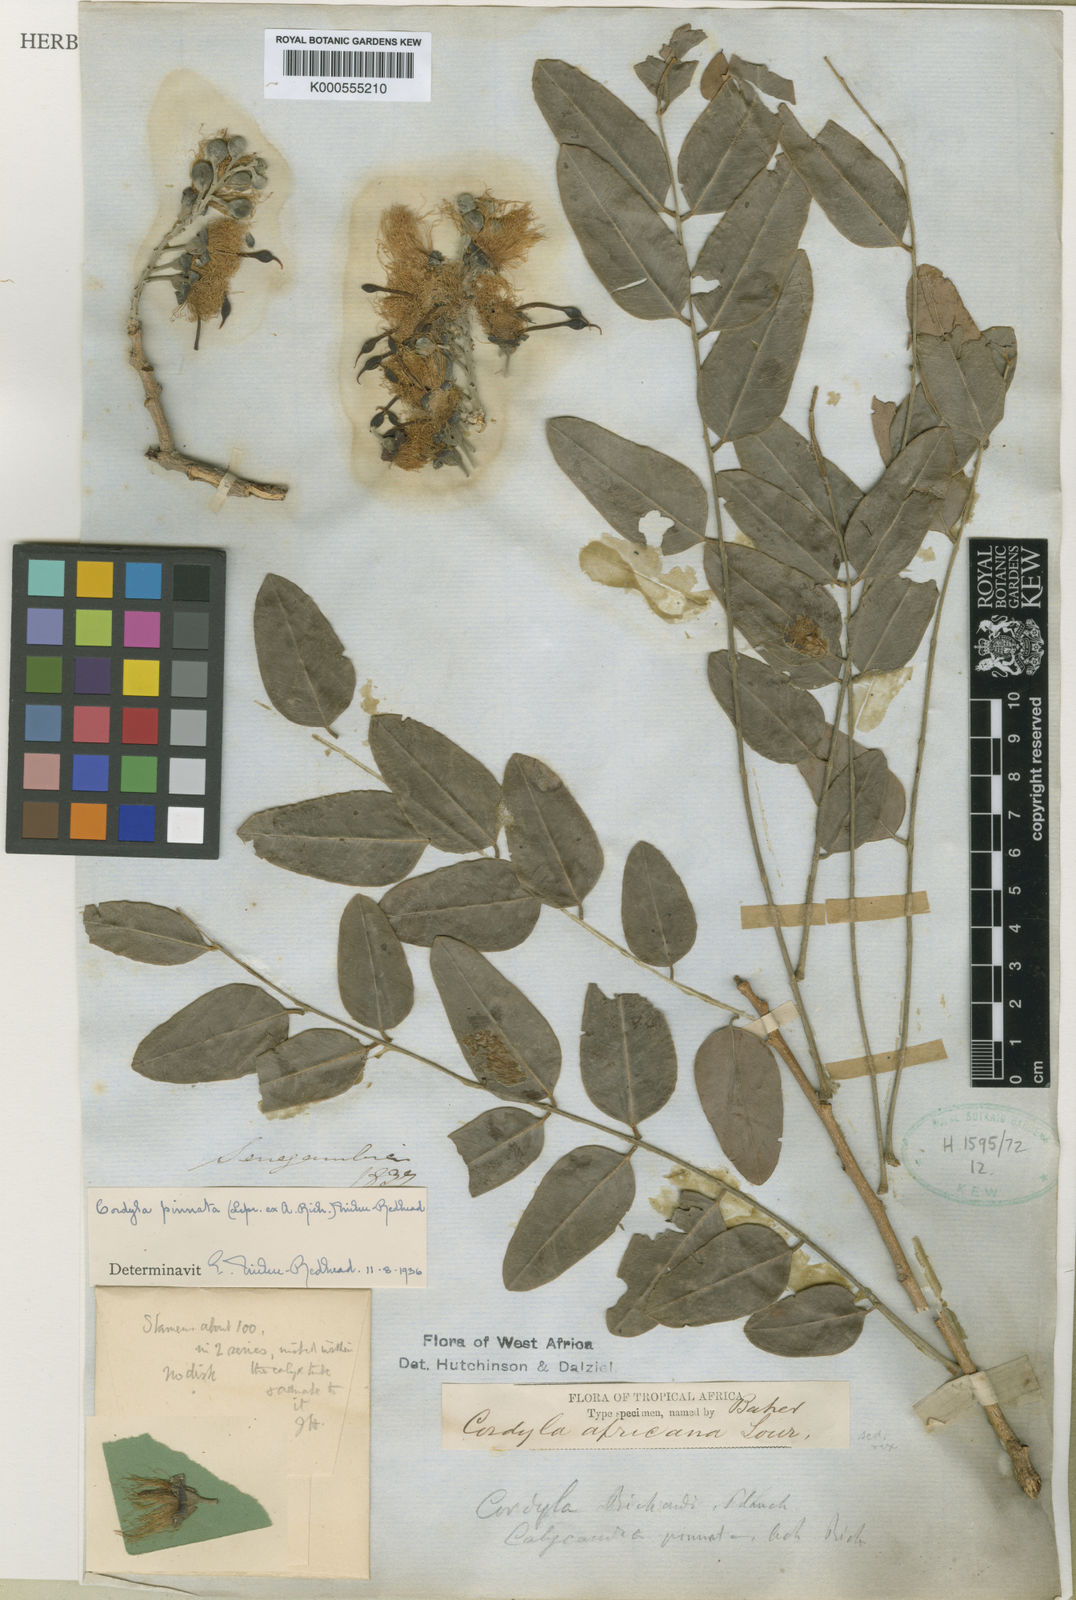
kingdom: Plantae
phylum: Tracheophyta
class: Magnoliopsida
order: Fabales
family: Fabaceae
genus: Cordyla
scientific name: Cordyla pinnata
